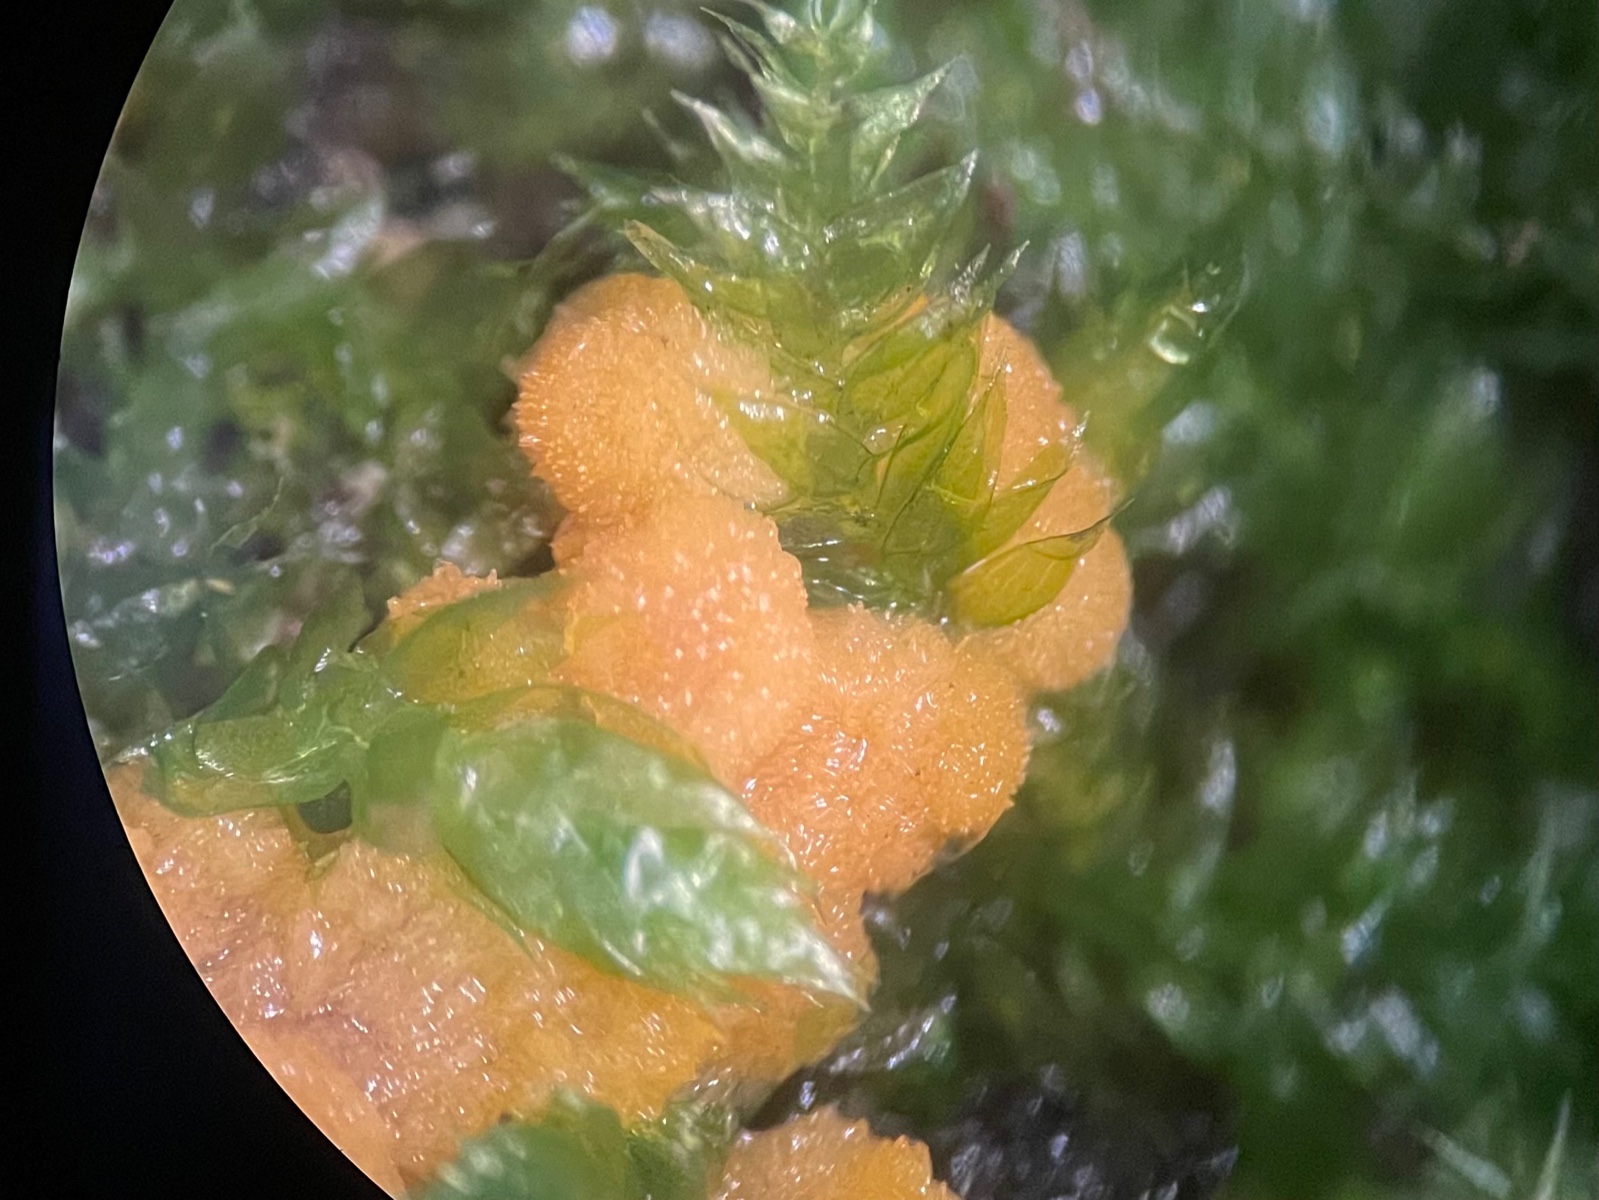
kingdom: Fungi
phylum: Ascomycota
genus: Bactridium
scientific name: Bactridium flavum
